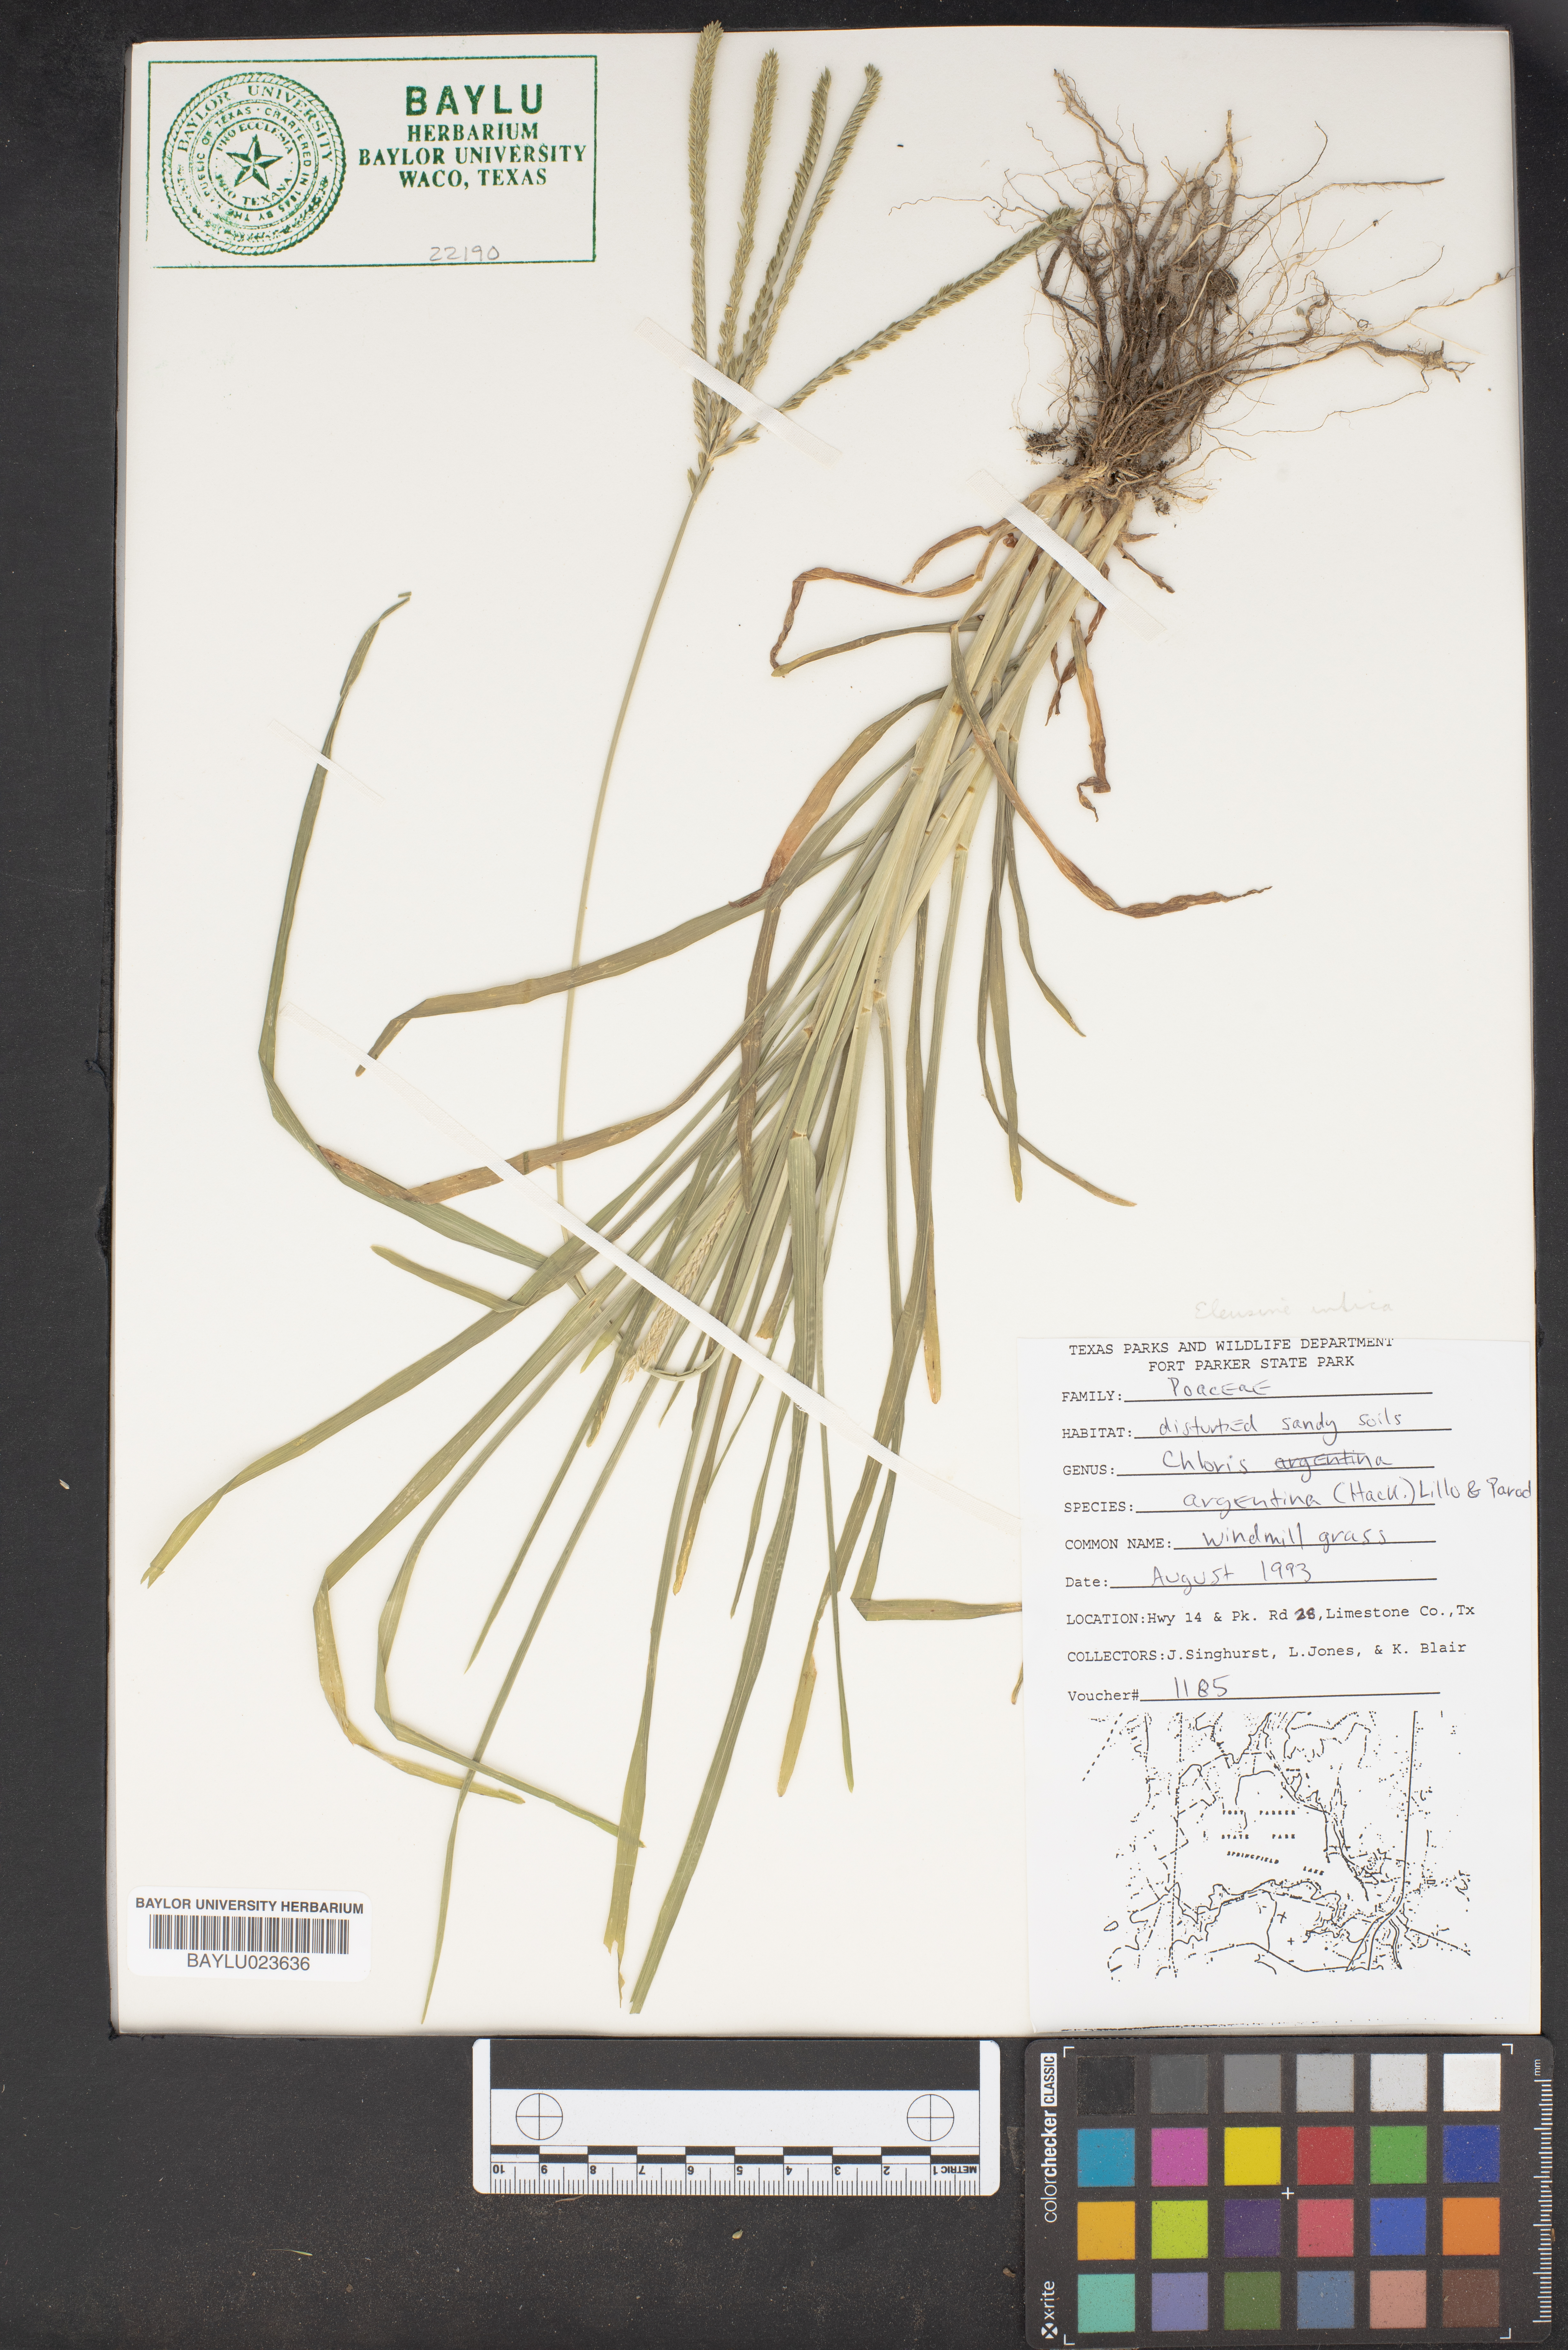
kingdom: Plantae
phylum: Tracheophyta
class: Liliopsida
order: Poales
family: Poaceae
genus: Eustachys
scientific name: Eustachys retusa
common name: Argentine fingergrass
